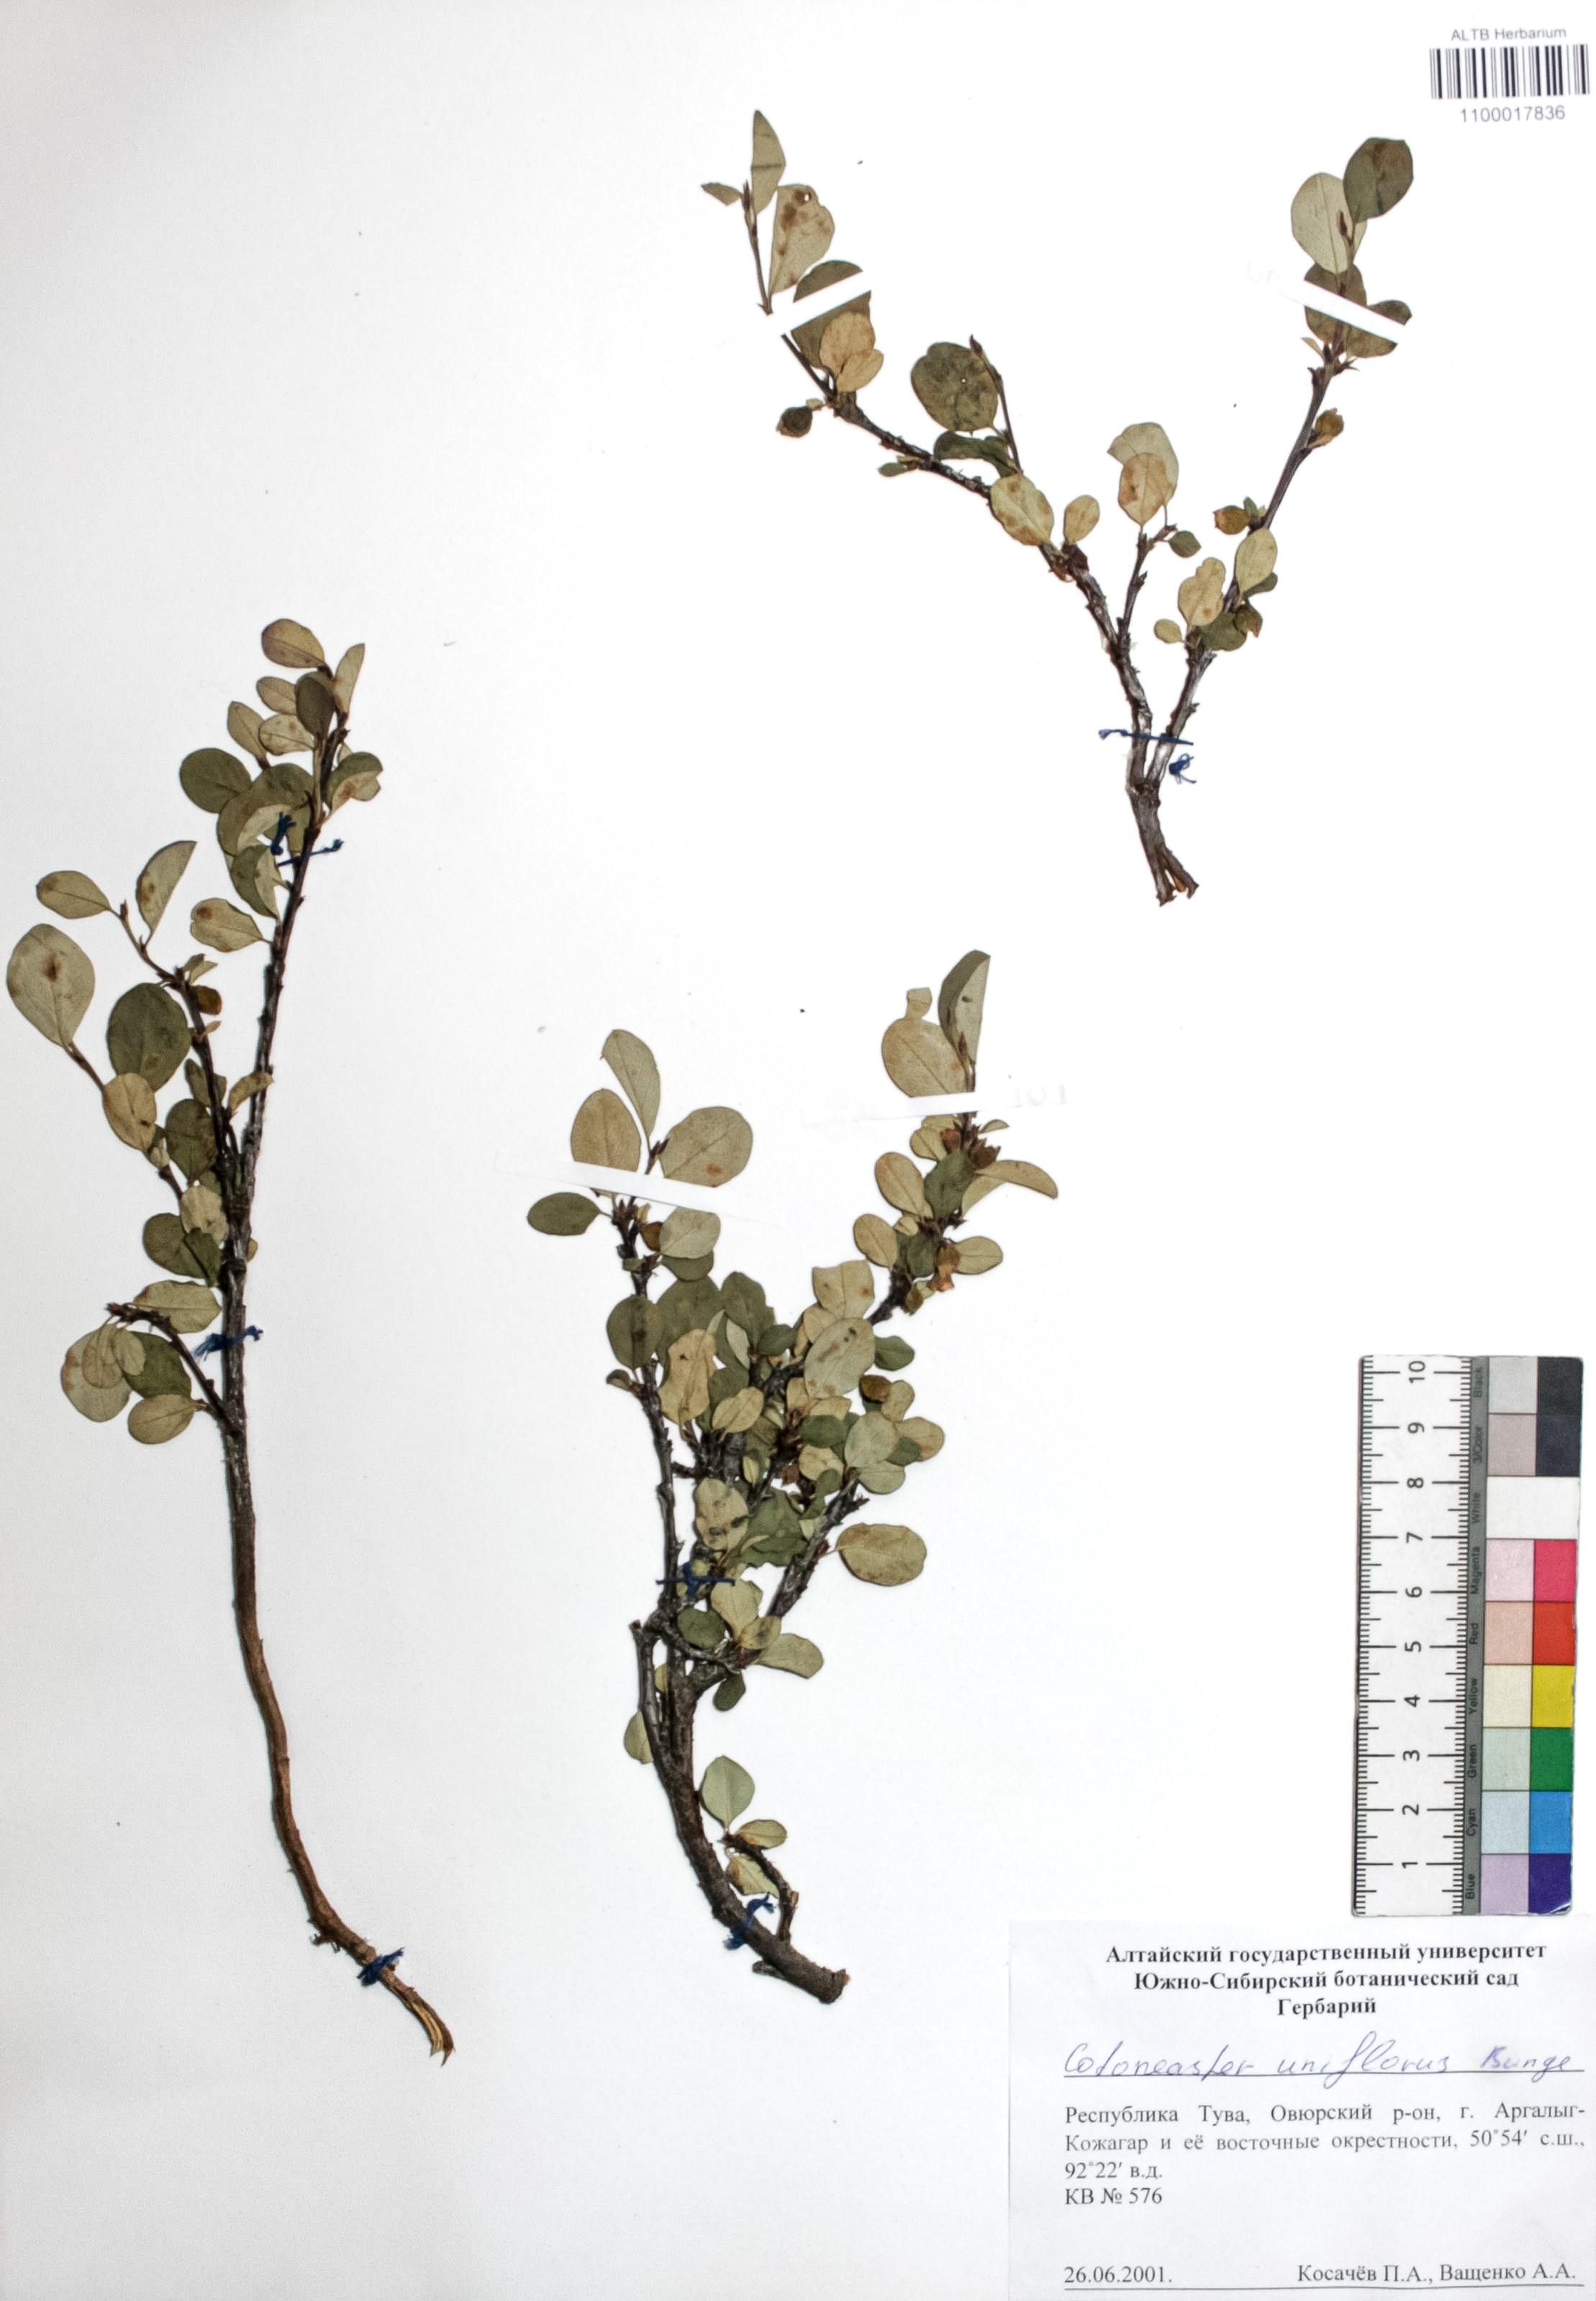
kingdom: Plantae
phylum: Tracheophyta
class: Magnoliopsida
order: Rosales
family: Rosaceae
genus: Cotoneaster
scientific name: Cotoneaster uniflorus
